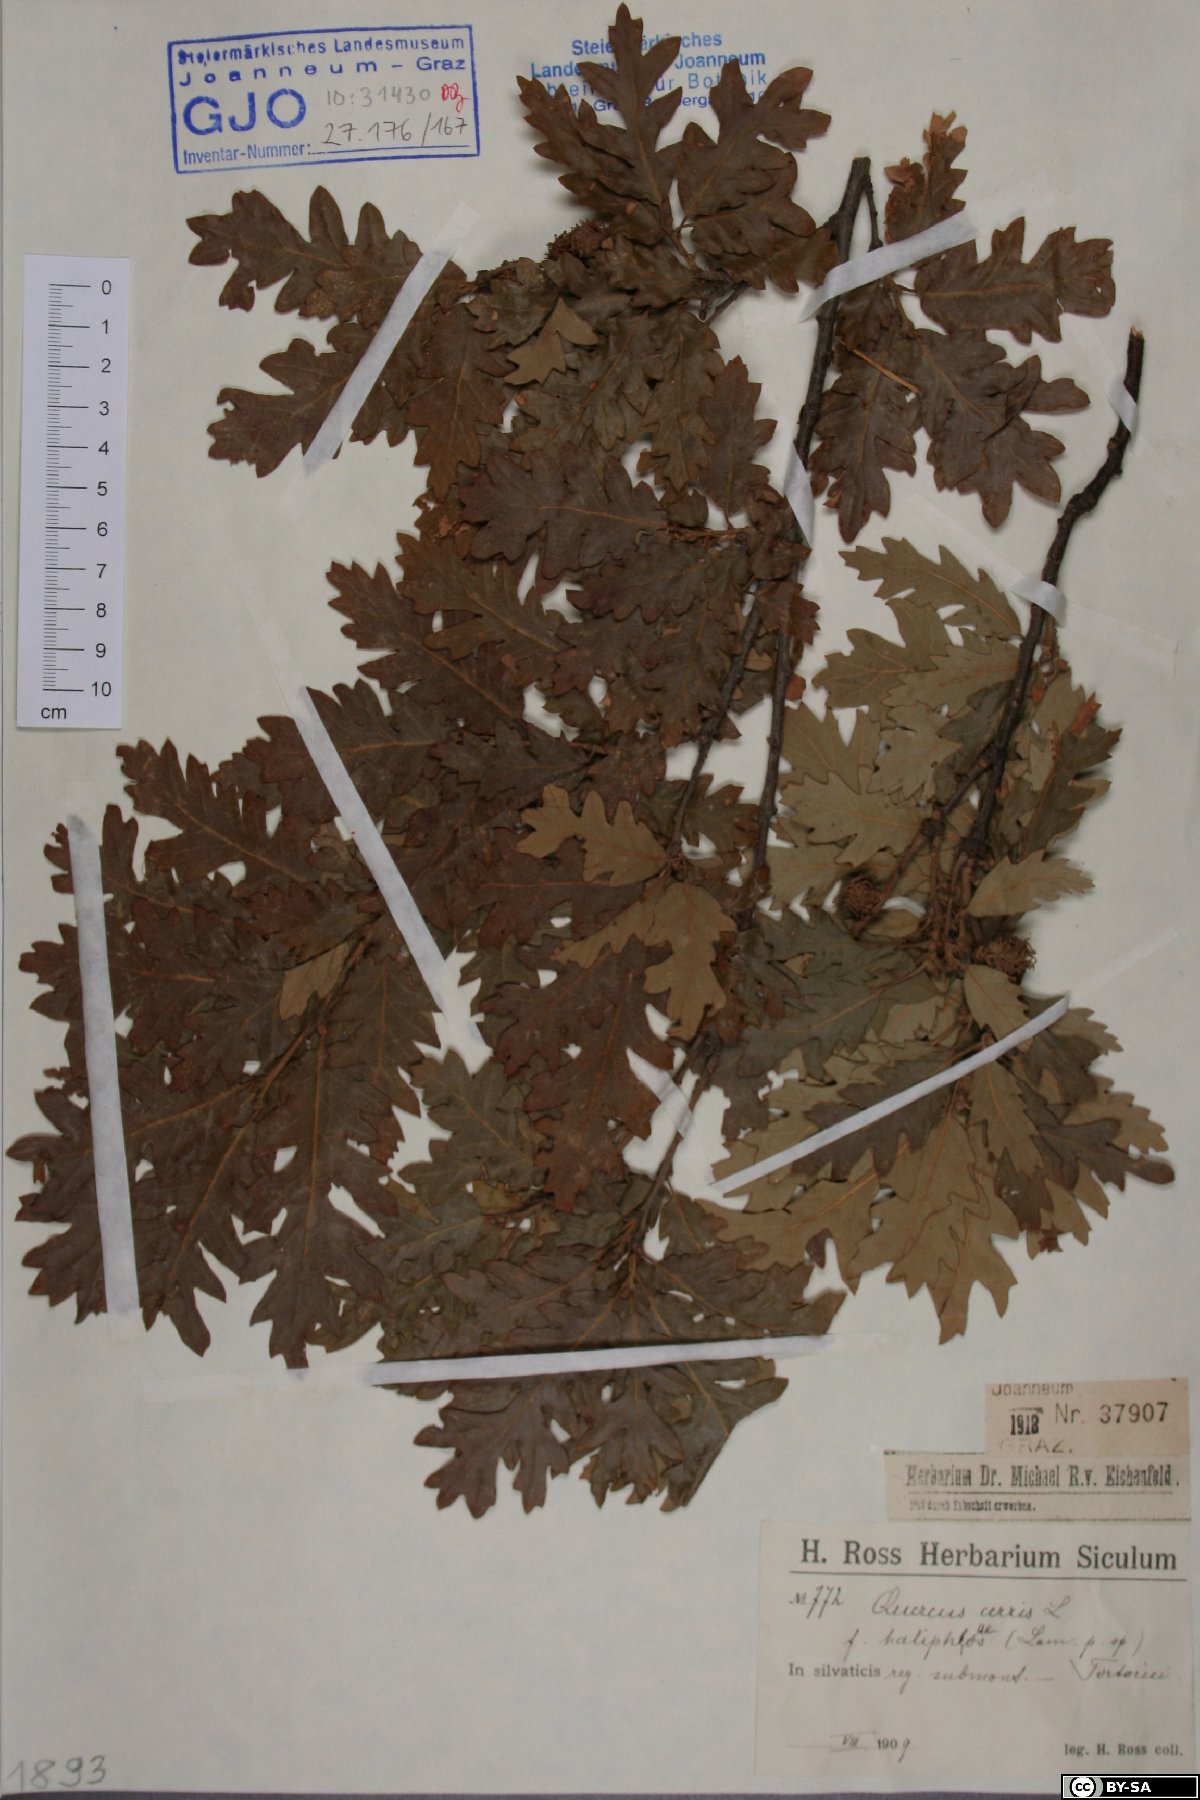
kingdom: Plantae
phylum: Tracheophyta
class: Magnoliopsida
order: Fagales
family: Fagaceae
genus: Quercus
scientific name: Quercus cerris
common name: Turkey oak
